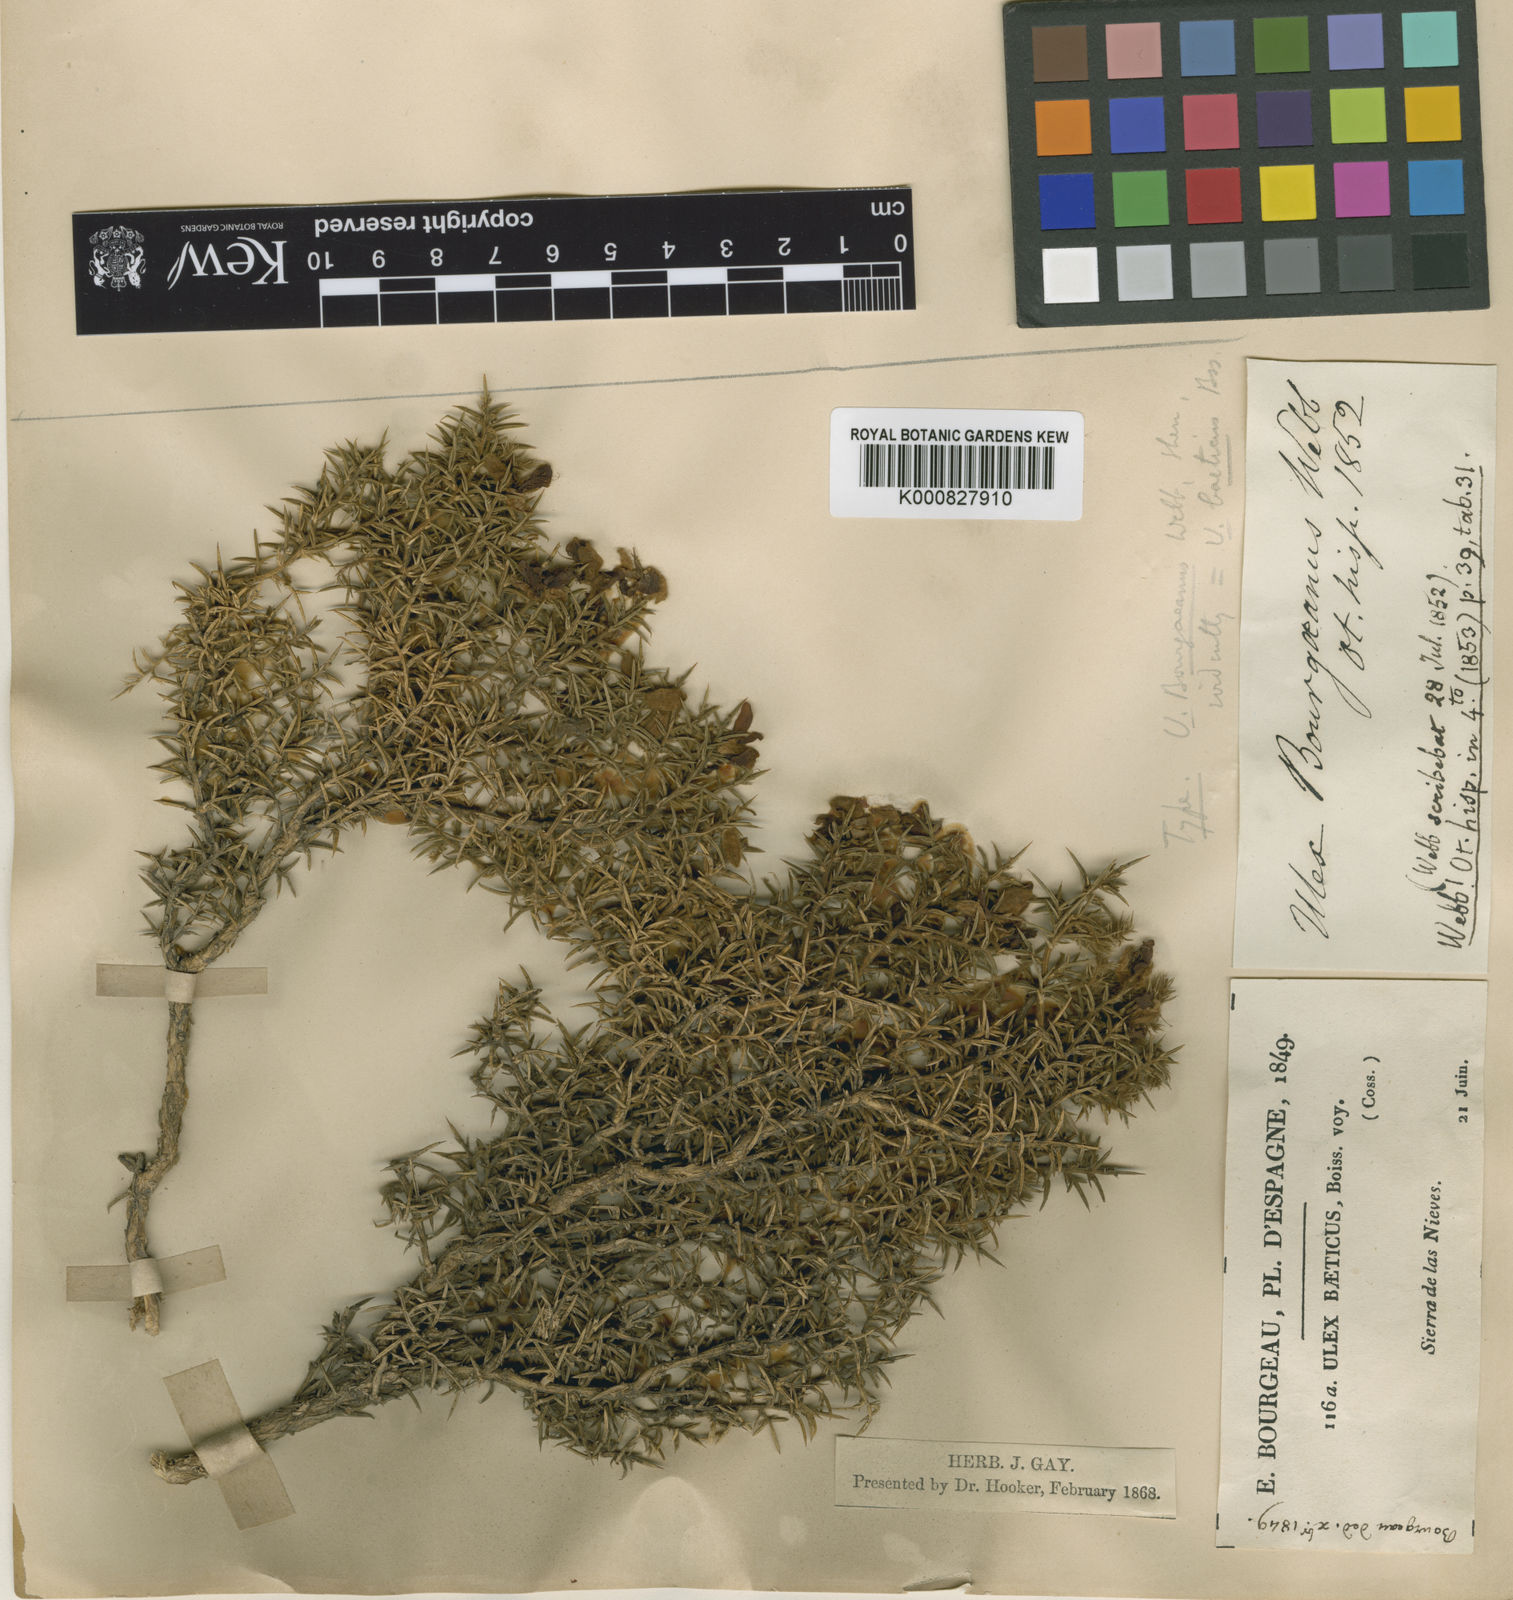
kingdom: Plantae
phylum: Tracheophyta
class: Magnoliopsida
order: Fabales
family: Fabaceae
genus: Ulex
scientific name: Ulex parviflorus
